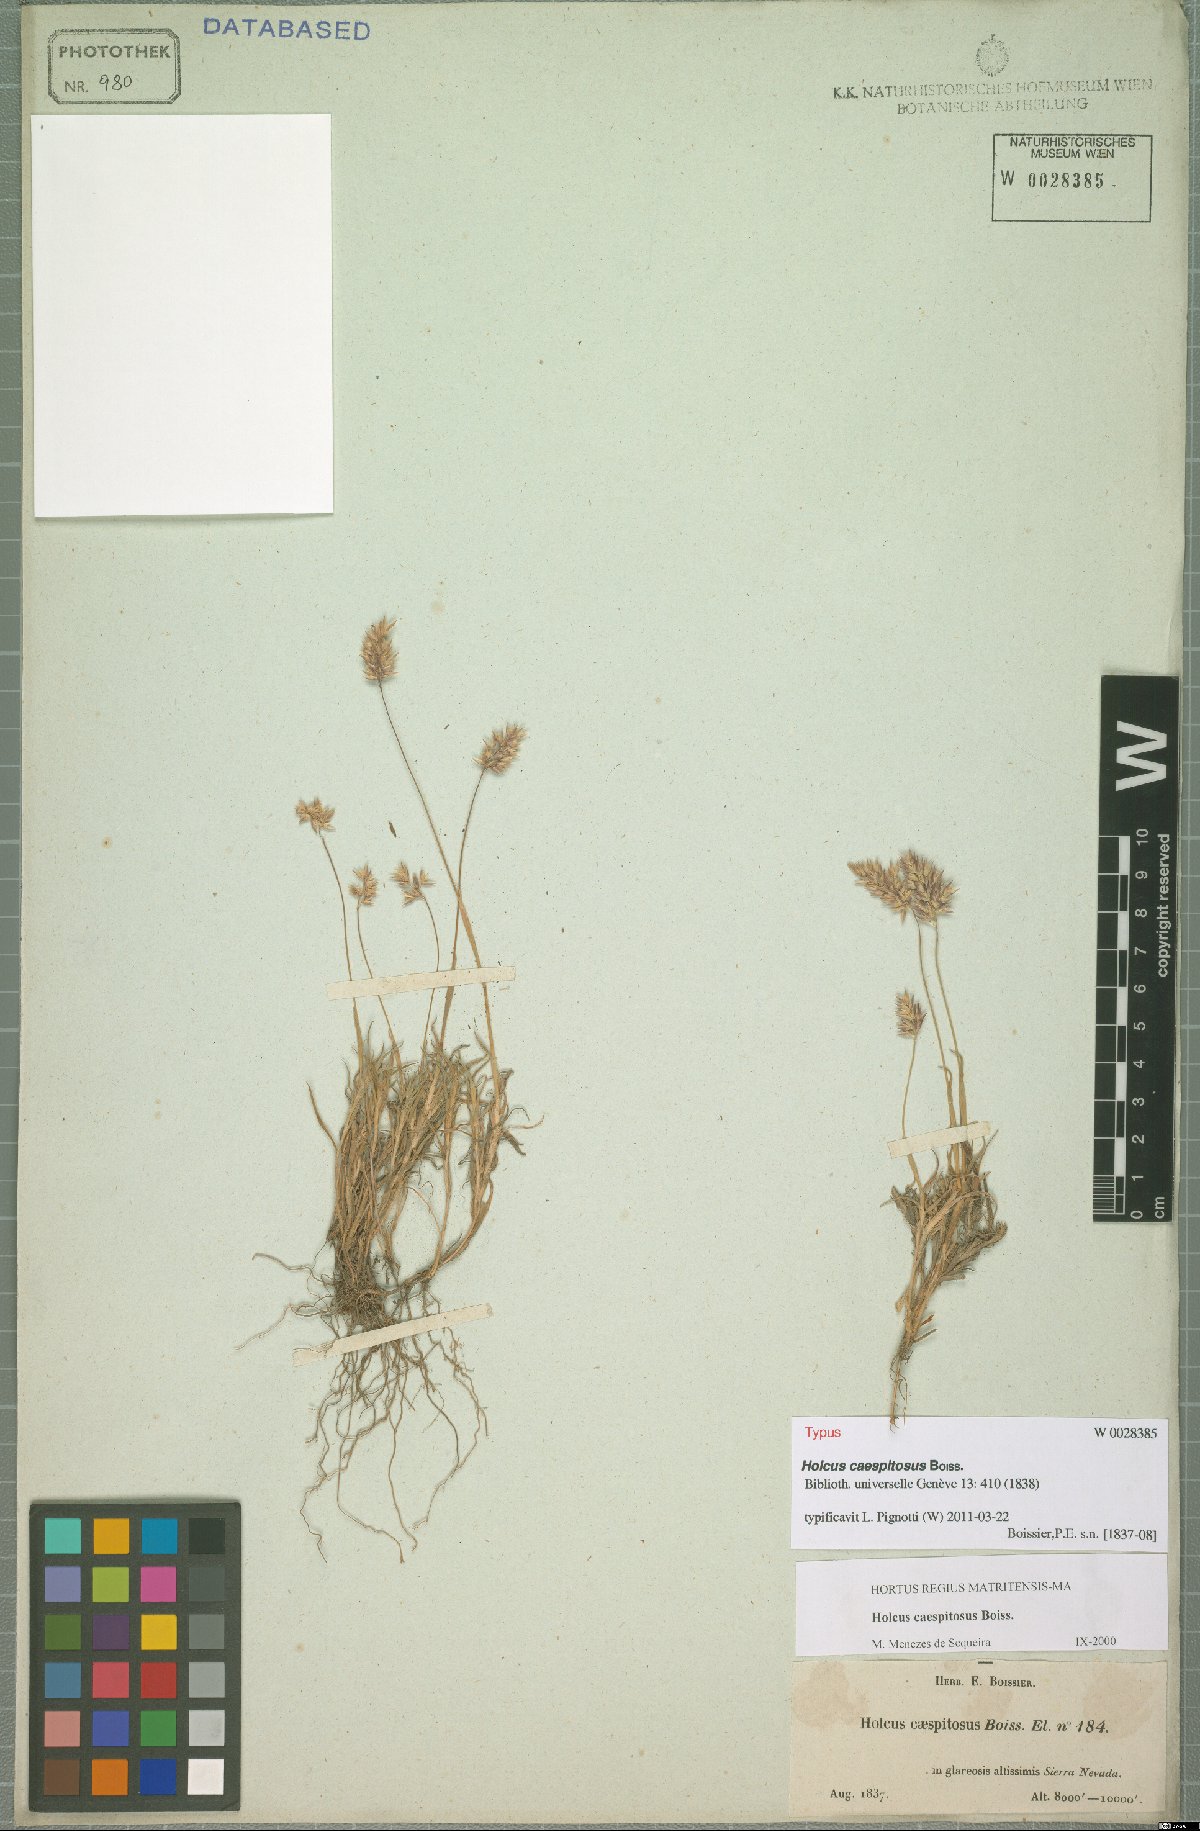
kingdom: Plantae
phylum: Tracheophyta
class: Liliopsida
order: Poales
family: Poaceae
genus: Holcus
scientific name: Holcus caespitosus
